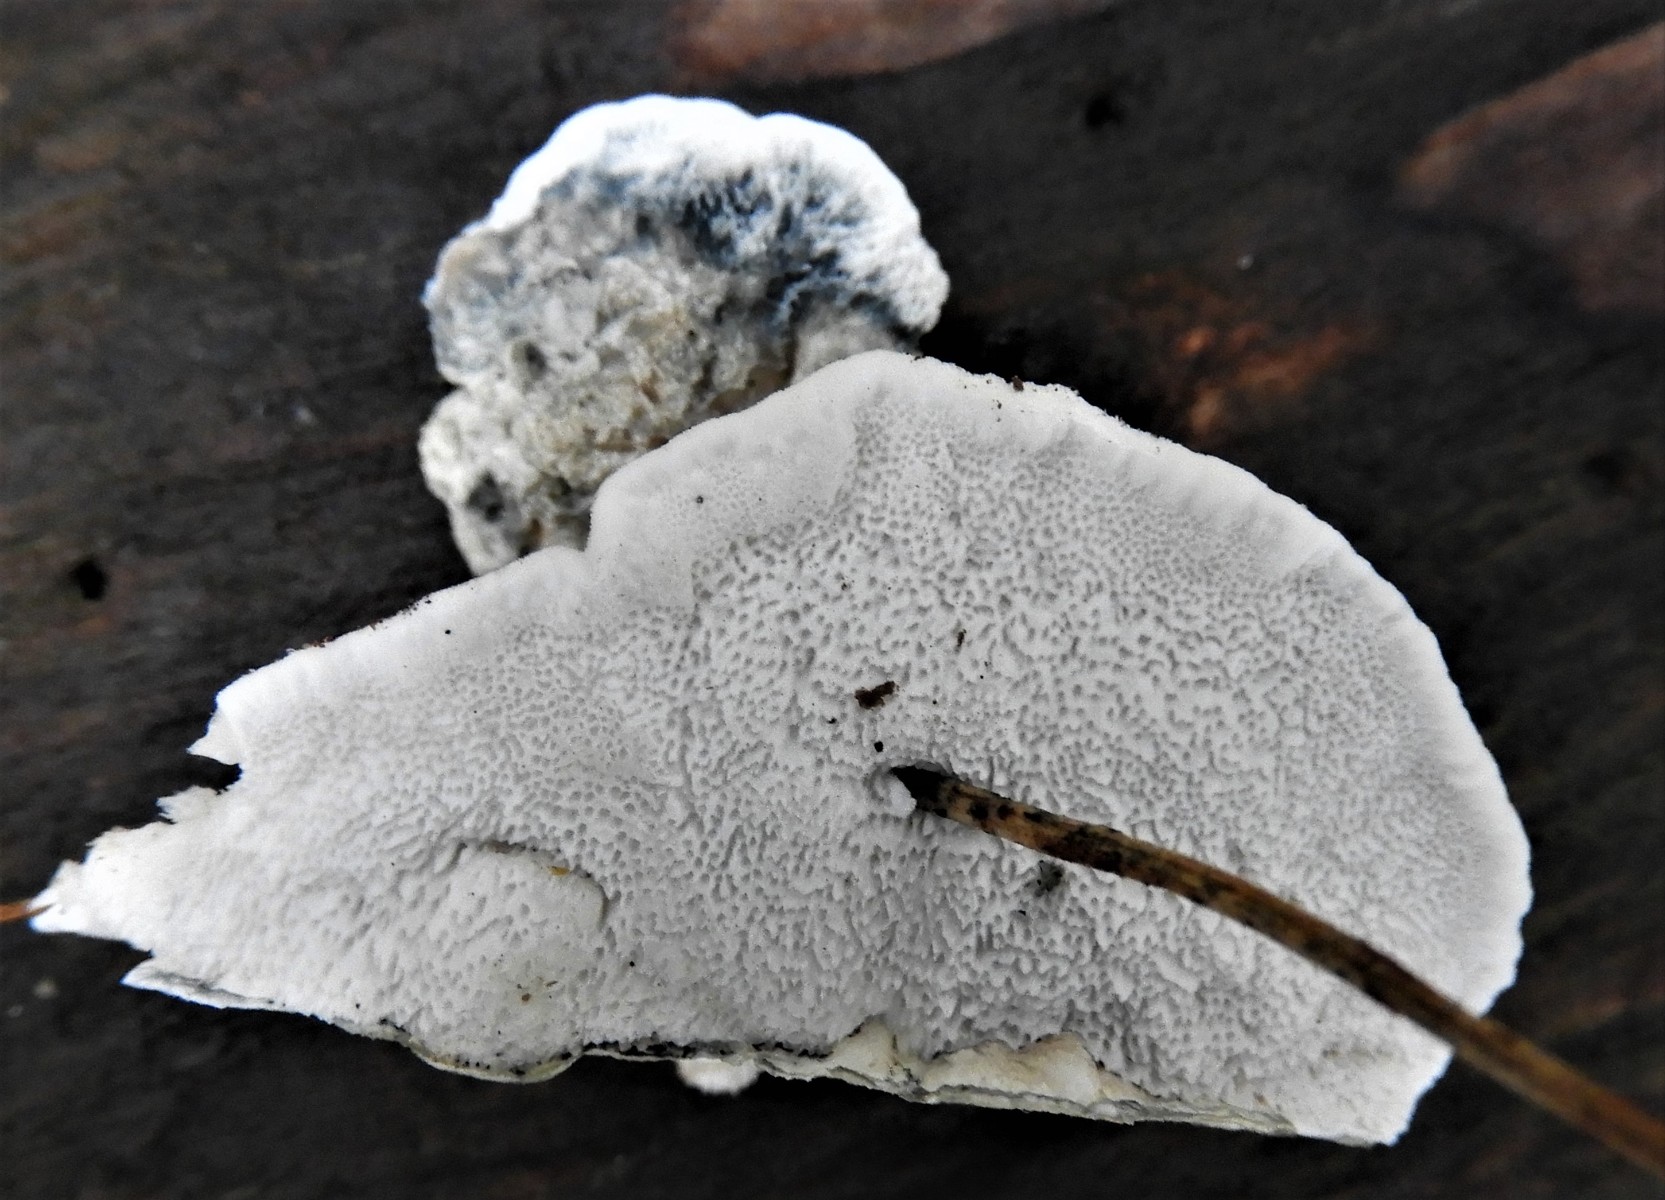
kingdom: Fungi
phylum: Basidiomycota
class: Agaricomycetes
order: Polyporales
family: Polyporaceae
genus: Cyanosporus
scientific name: Cyanosporus alni
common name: blegblå kødporesvamp
